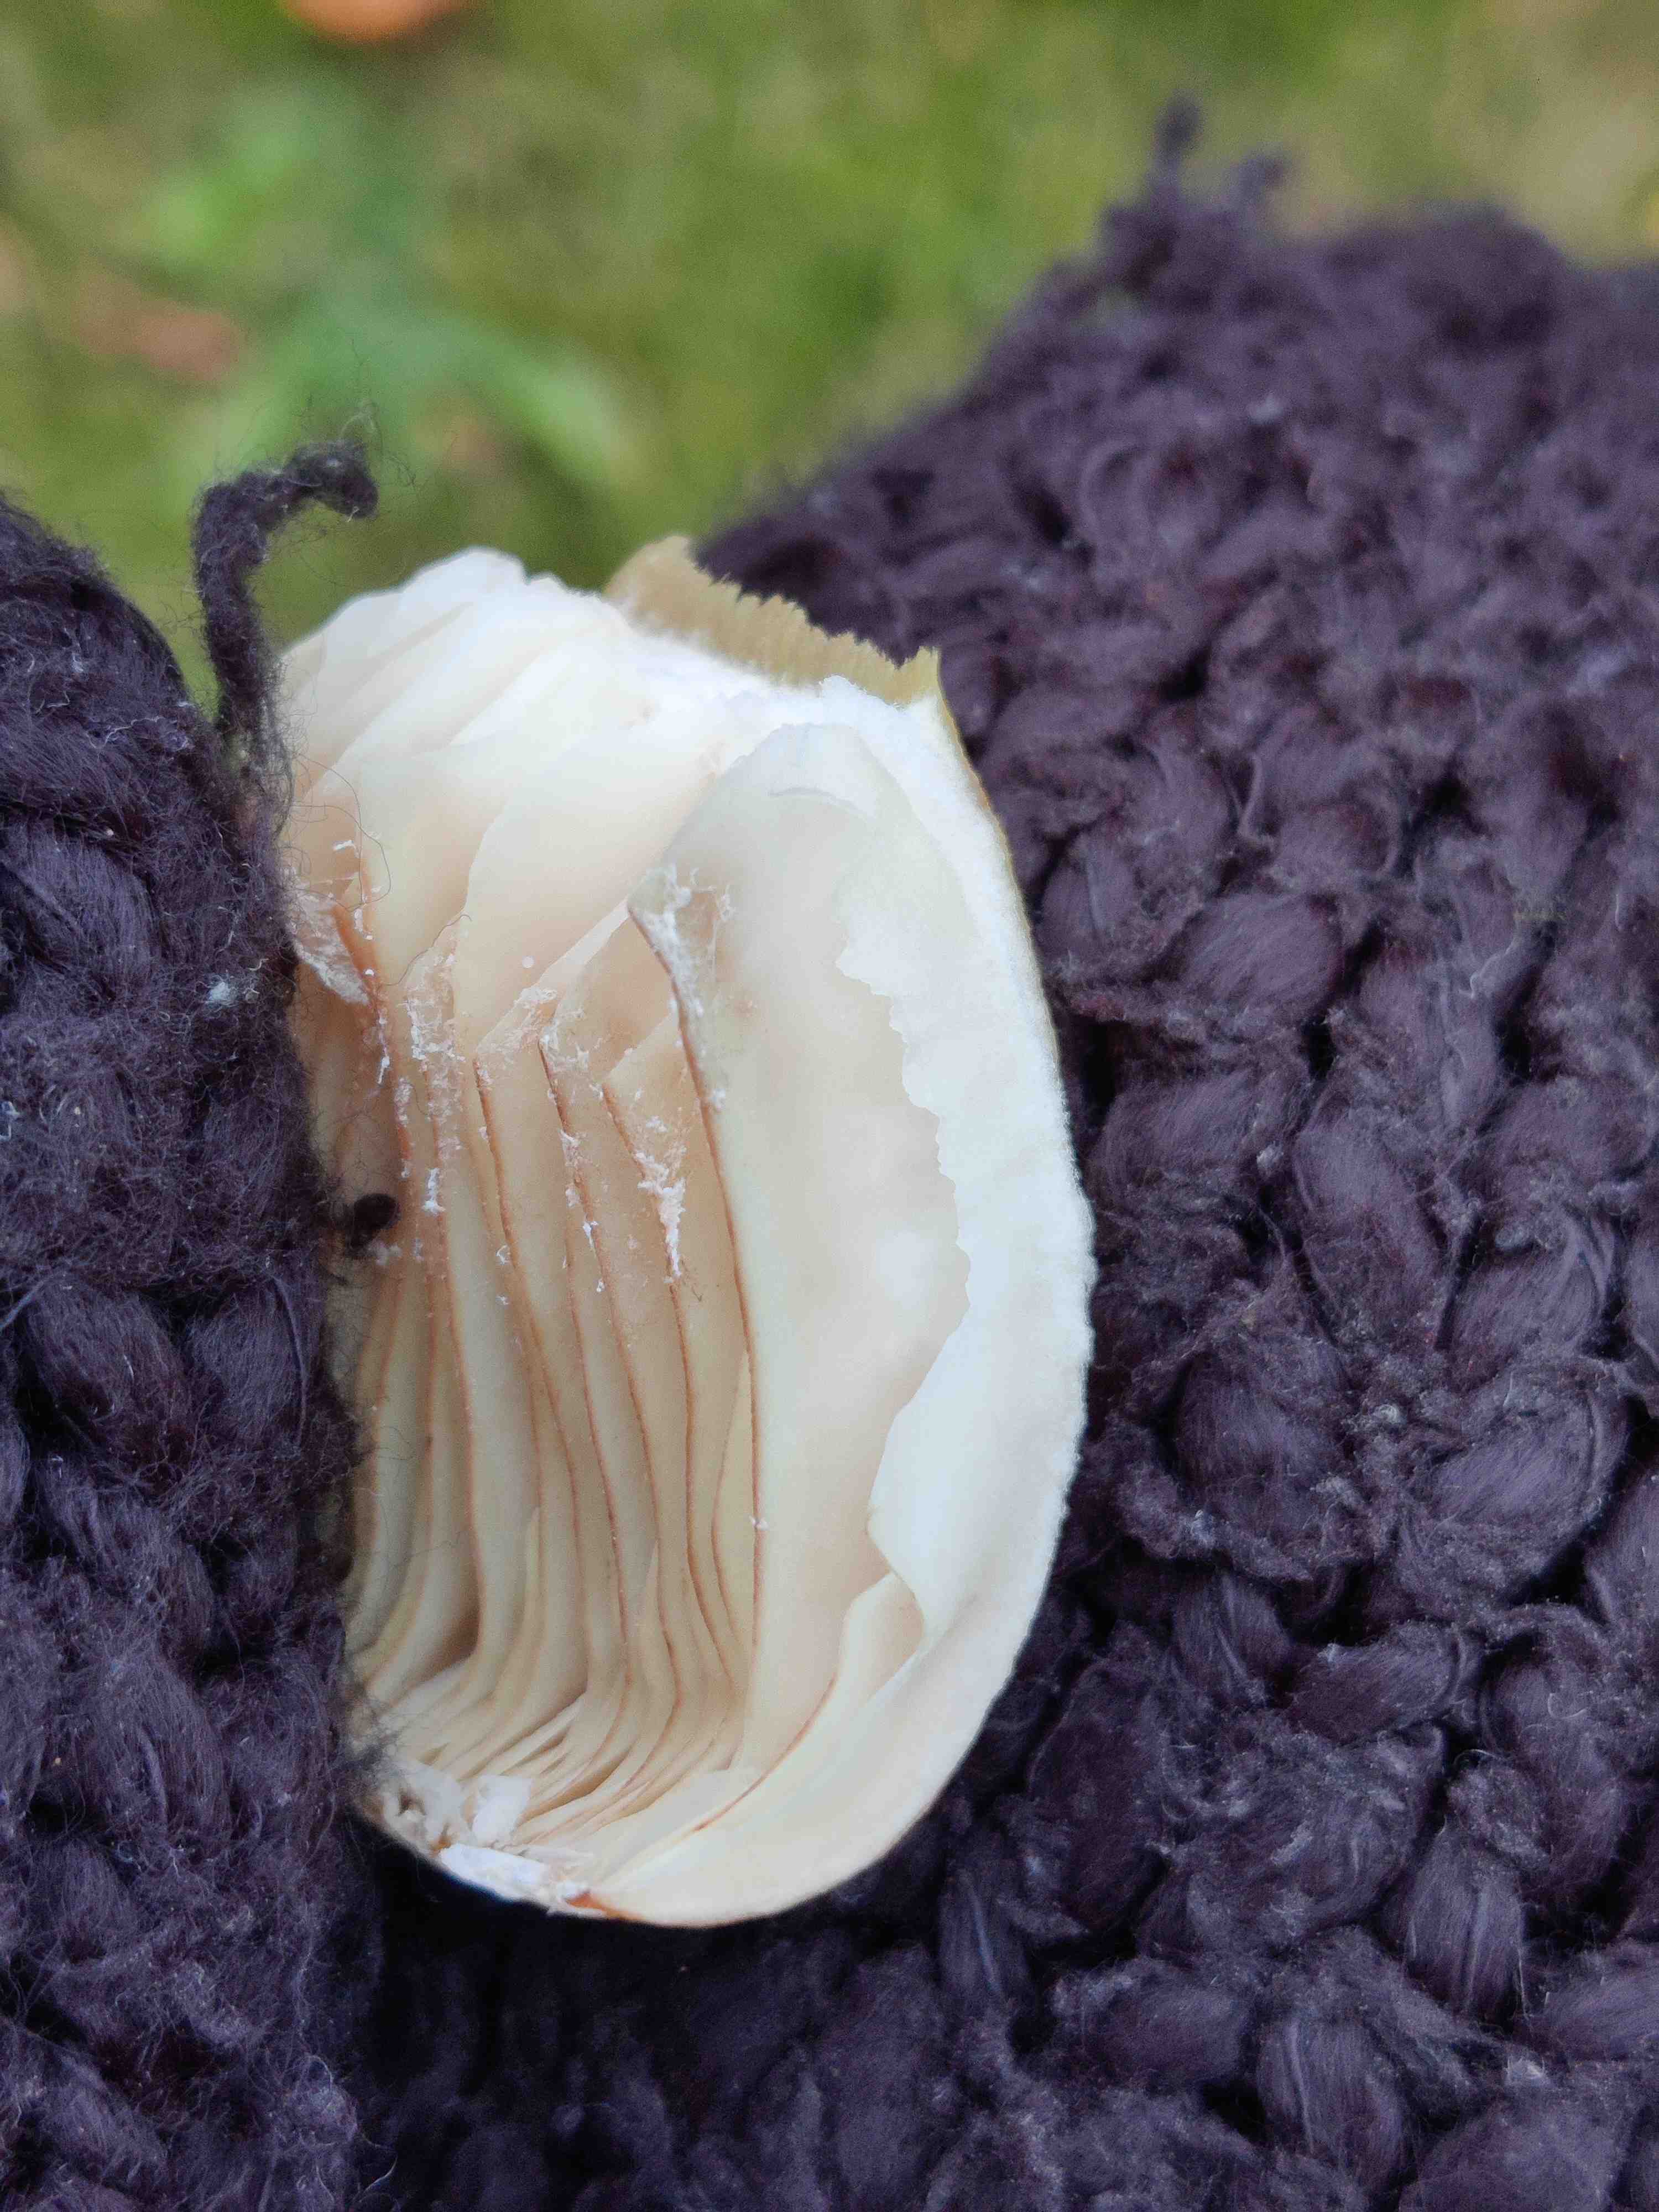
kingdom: Fungi
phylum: Basidiomycota
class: Agaricomycetes
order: Agaricales
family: Physalacriaceae
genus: Armillaria
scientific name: Armillaria
